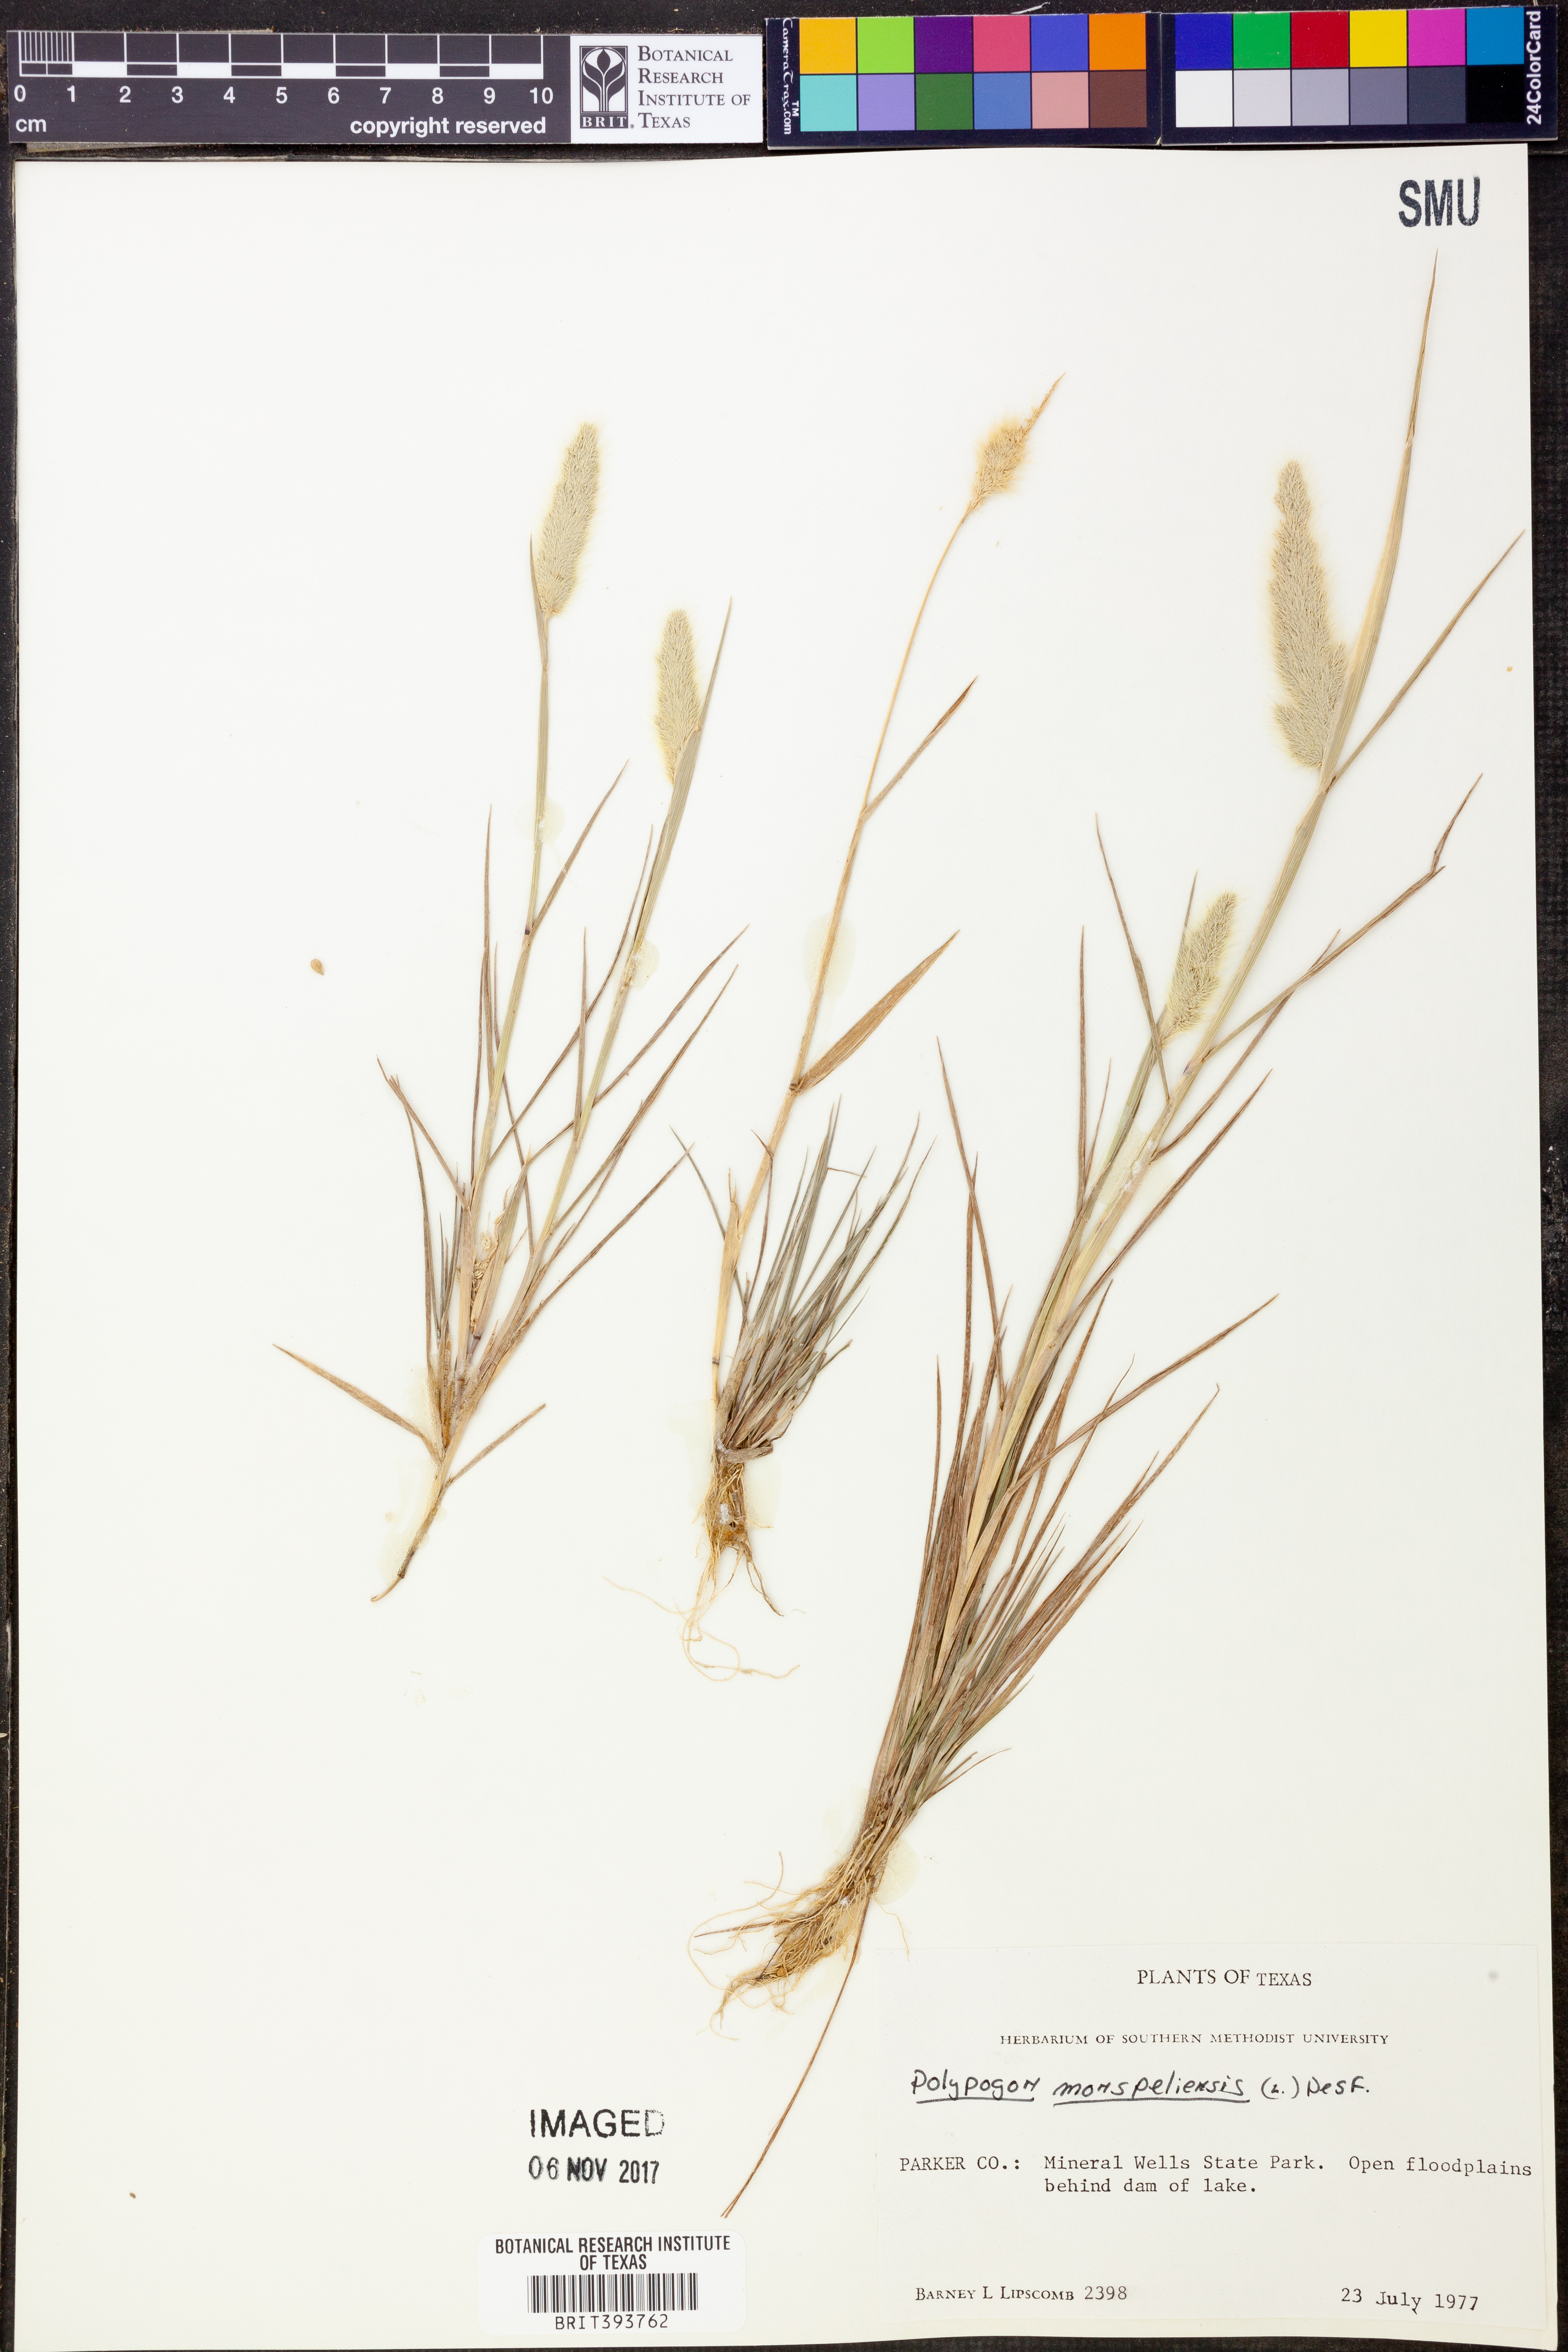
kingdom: Plantae
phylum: Tracheophyta
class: Liliopsida
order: Poales
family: Poaceae
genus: Polypogon
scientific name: Polypogon monspeliensis
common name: Annual rabbitsfoot grass
